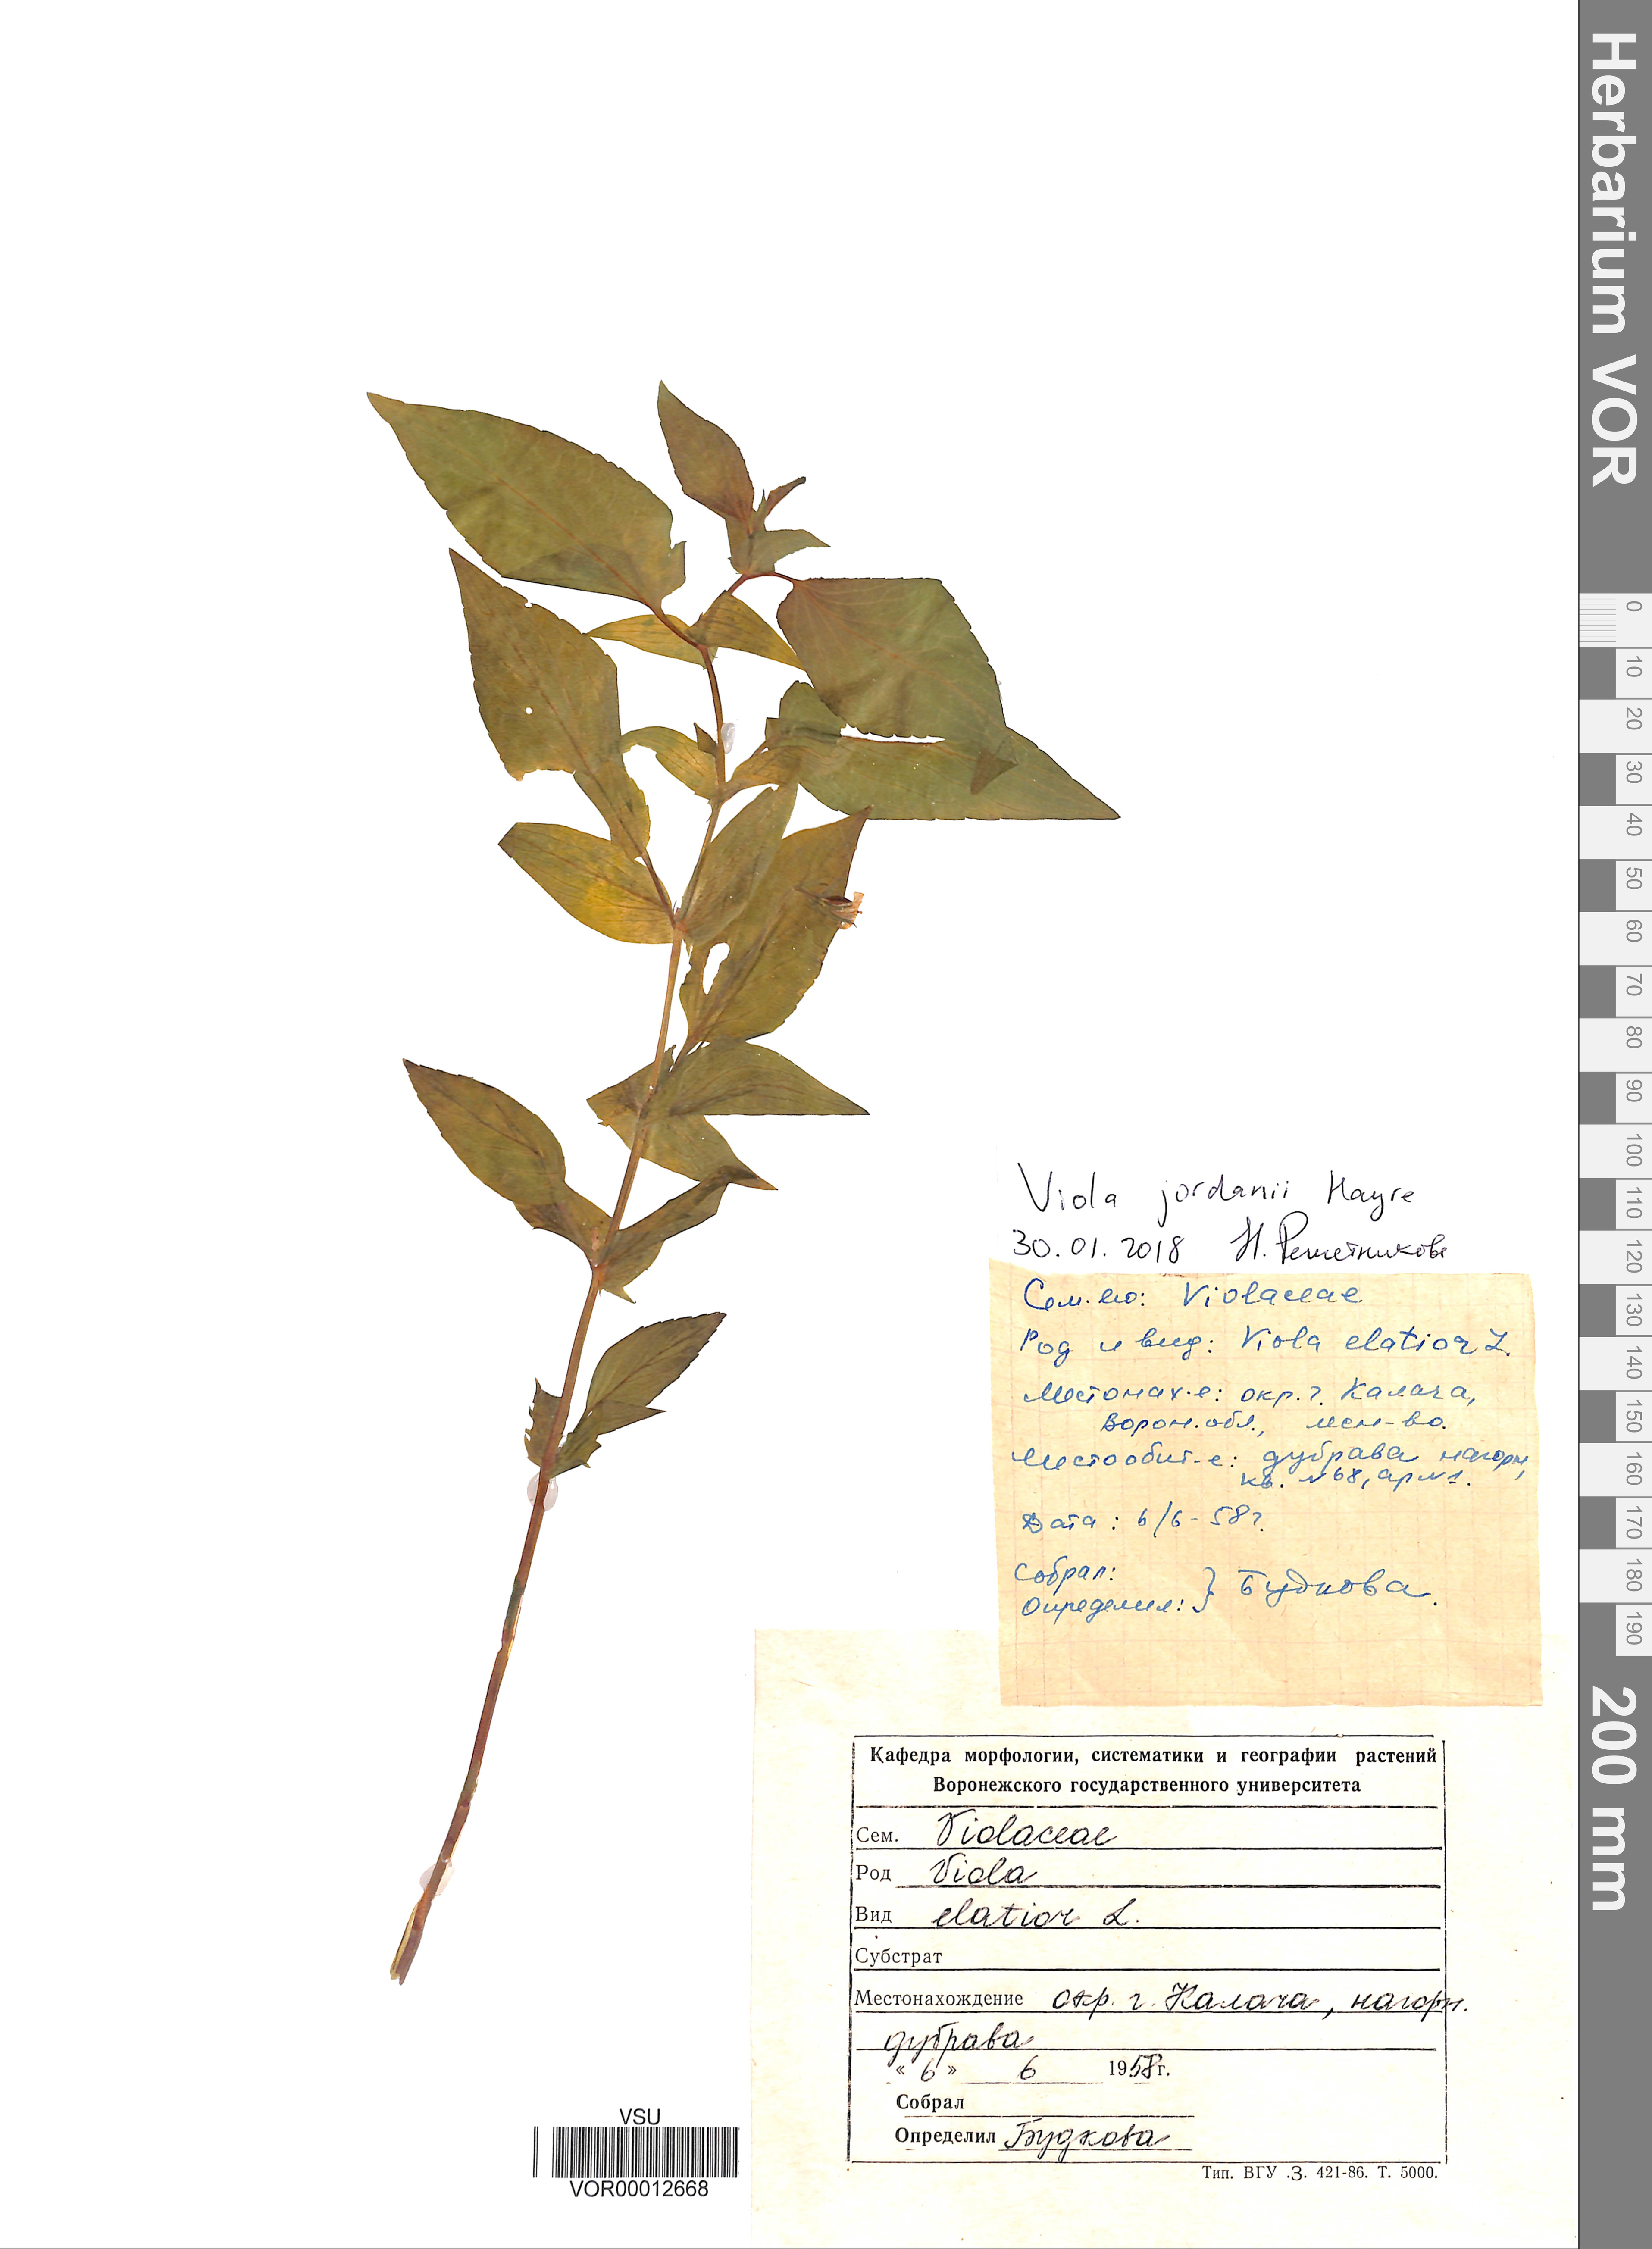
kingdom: Plantae
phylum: Tracheophyta
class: Magnoliopsida
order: Malpighiales
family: Violaceae
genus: Viola
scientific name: Viola jordanii
